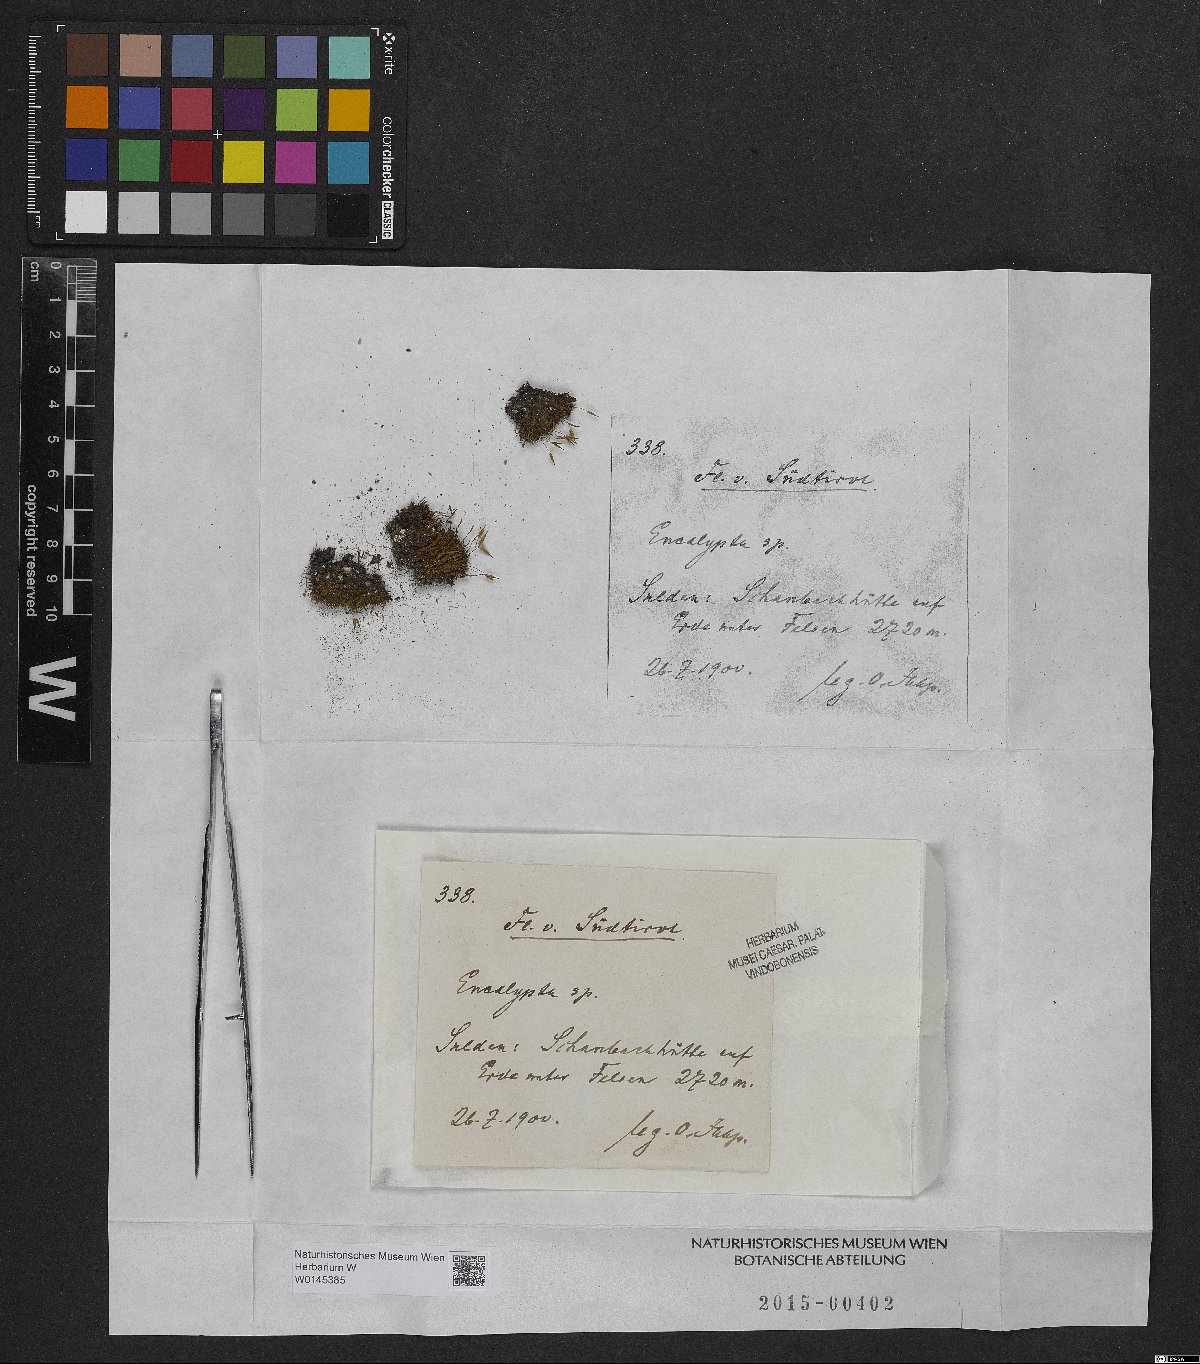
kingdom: Plantae
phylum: Bryophyta
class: Bryopsida
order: Encalyptales
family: Encalyptaceae
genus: Encalypta
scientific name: Encalypta
